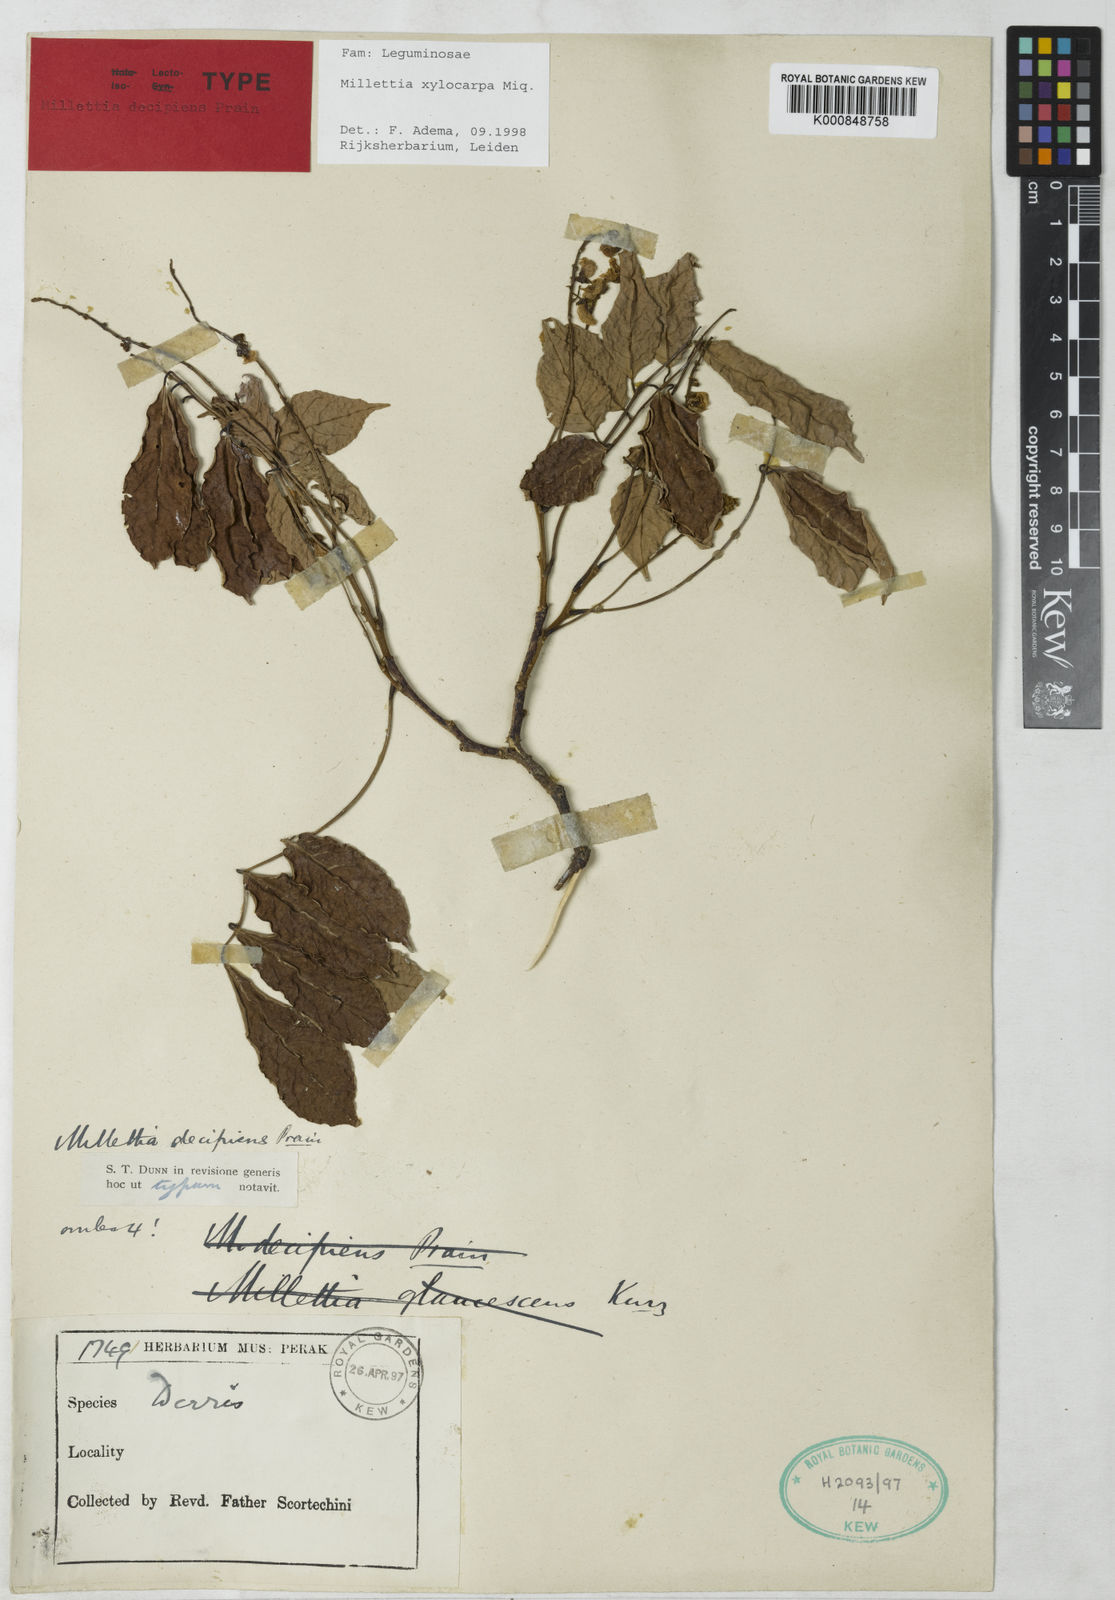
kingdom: Plantae
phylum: Tracheophyta
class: Magnoliopsida
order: Fabales
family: Fabaceae
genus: Millettia
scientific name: Millettia xylocarpa
